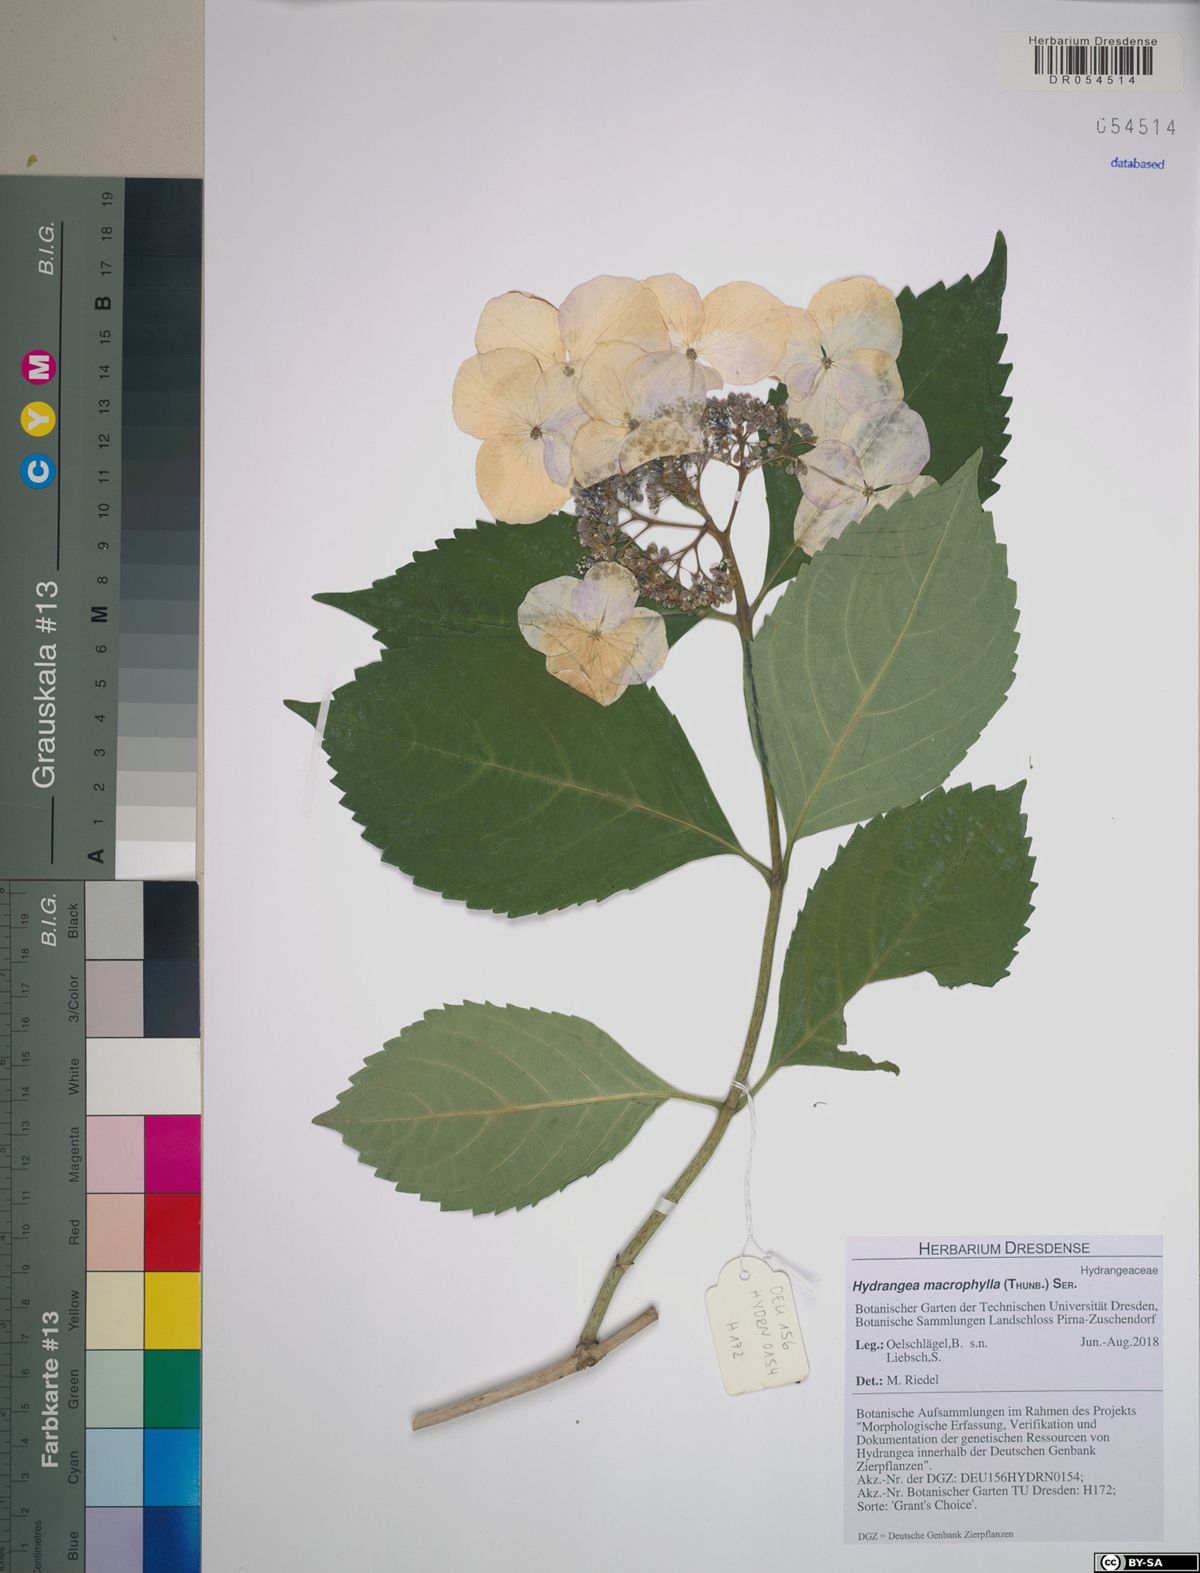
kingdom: Plantae
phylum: Tracheophyta
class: Magnoliopsida
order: Cornales
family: Hydrangeaceae
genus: Hydrangea
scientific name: Hydrangea macrophylla
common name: Hydrangea
